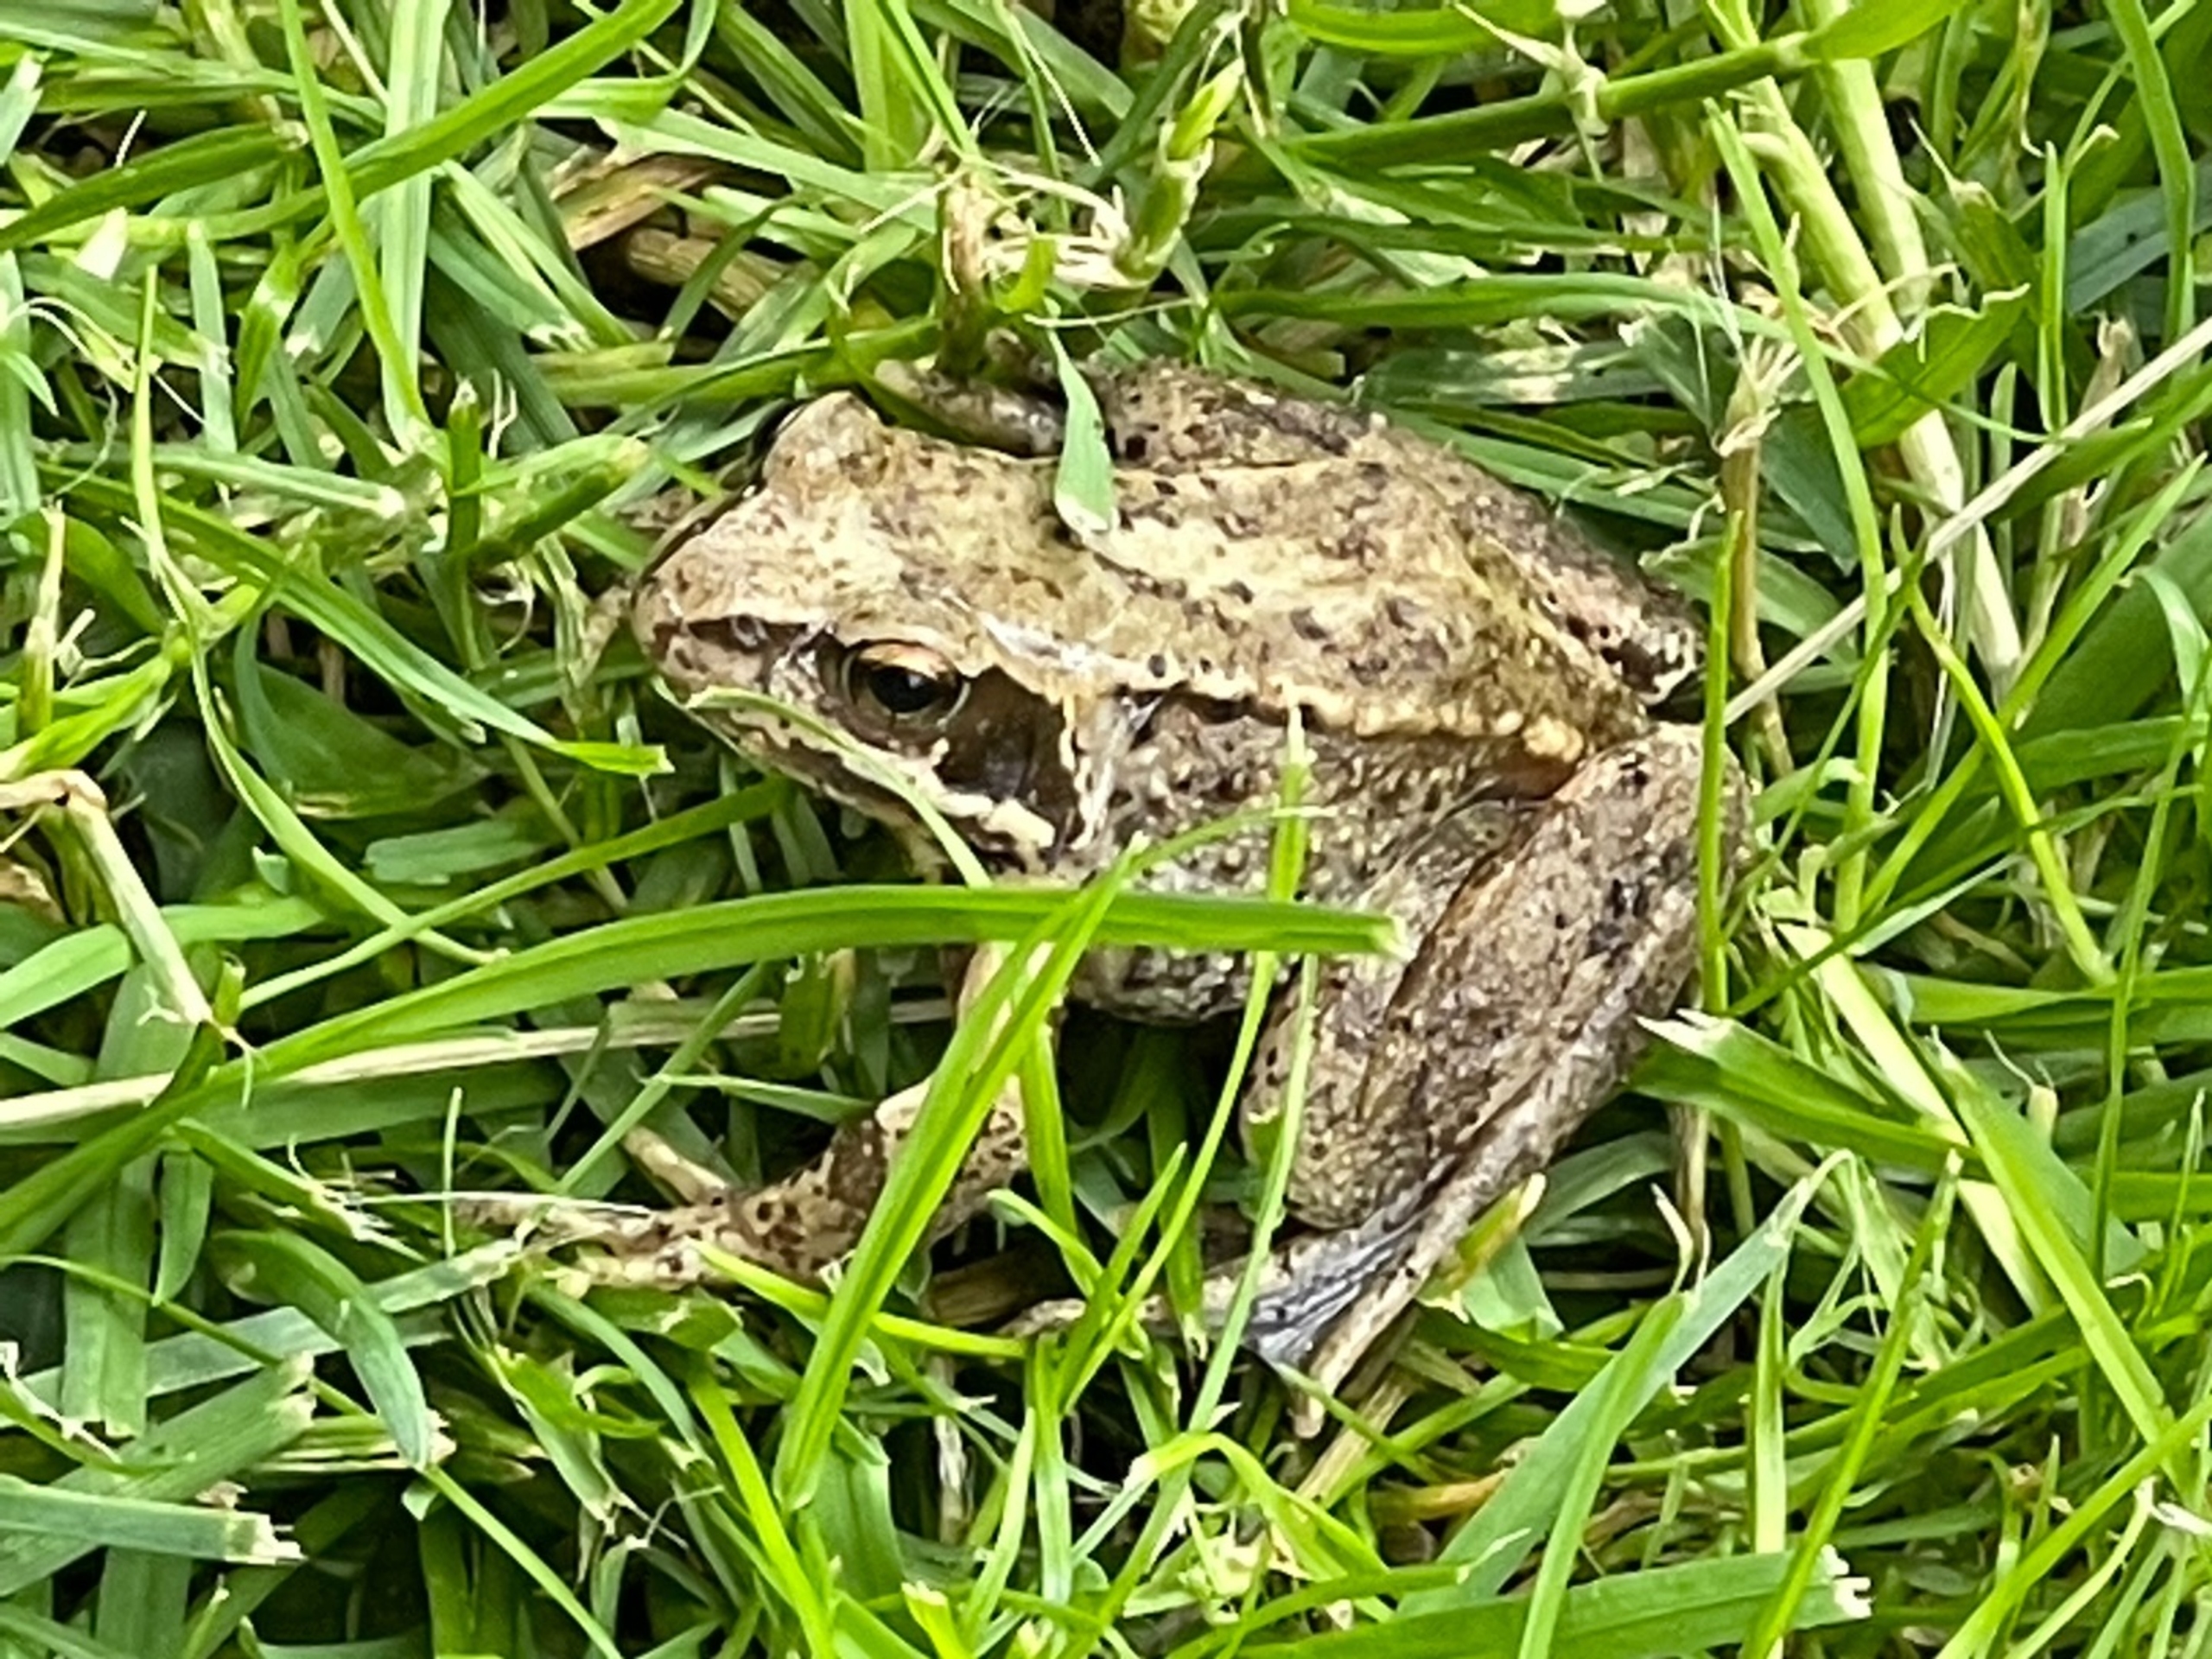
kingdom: Animalia
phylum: Chordata
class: Amphibia
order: Anura
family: Ranidae
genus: Rana
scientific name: Rana temporaria
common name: Butsnudet frø
